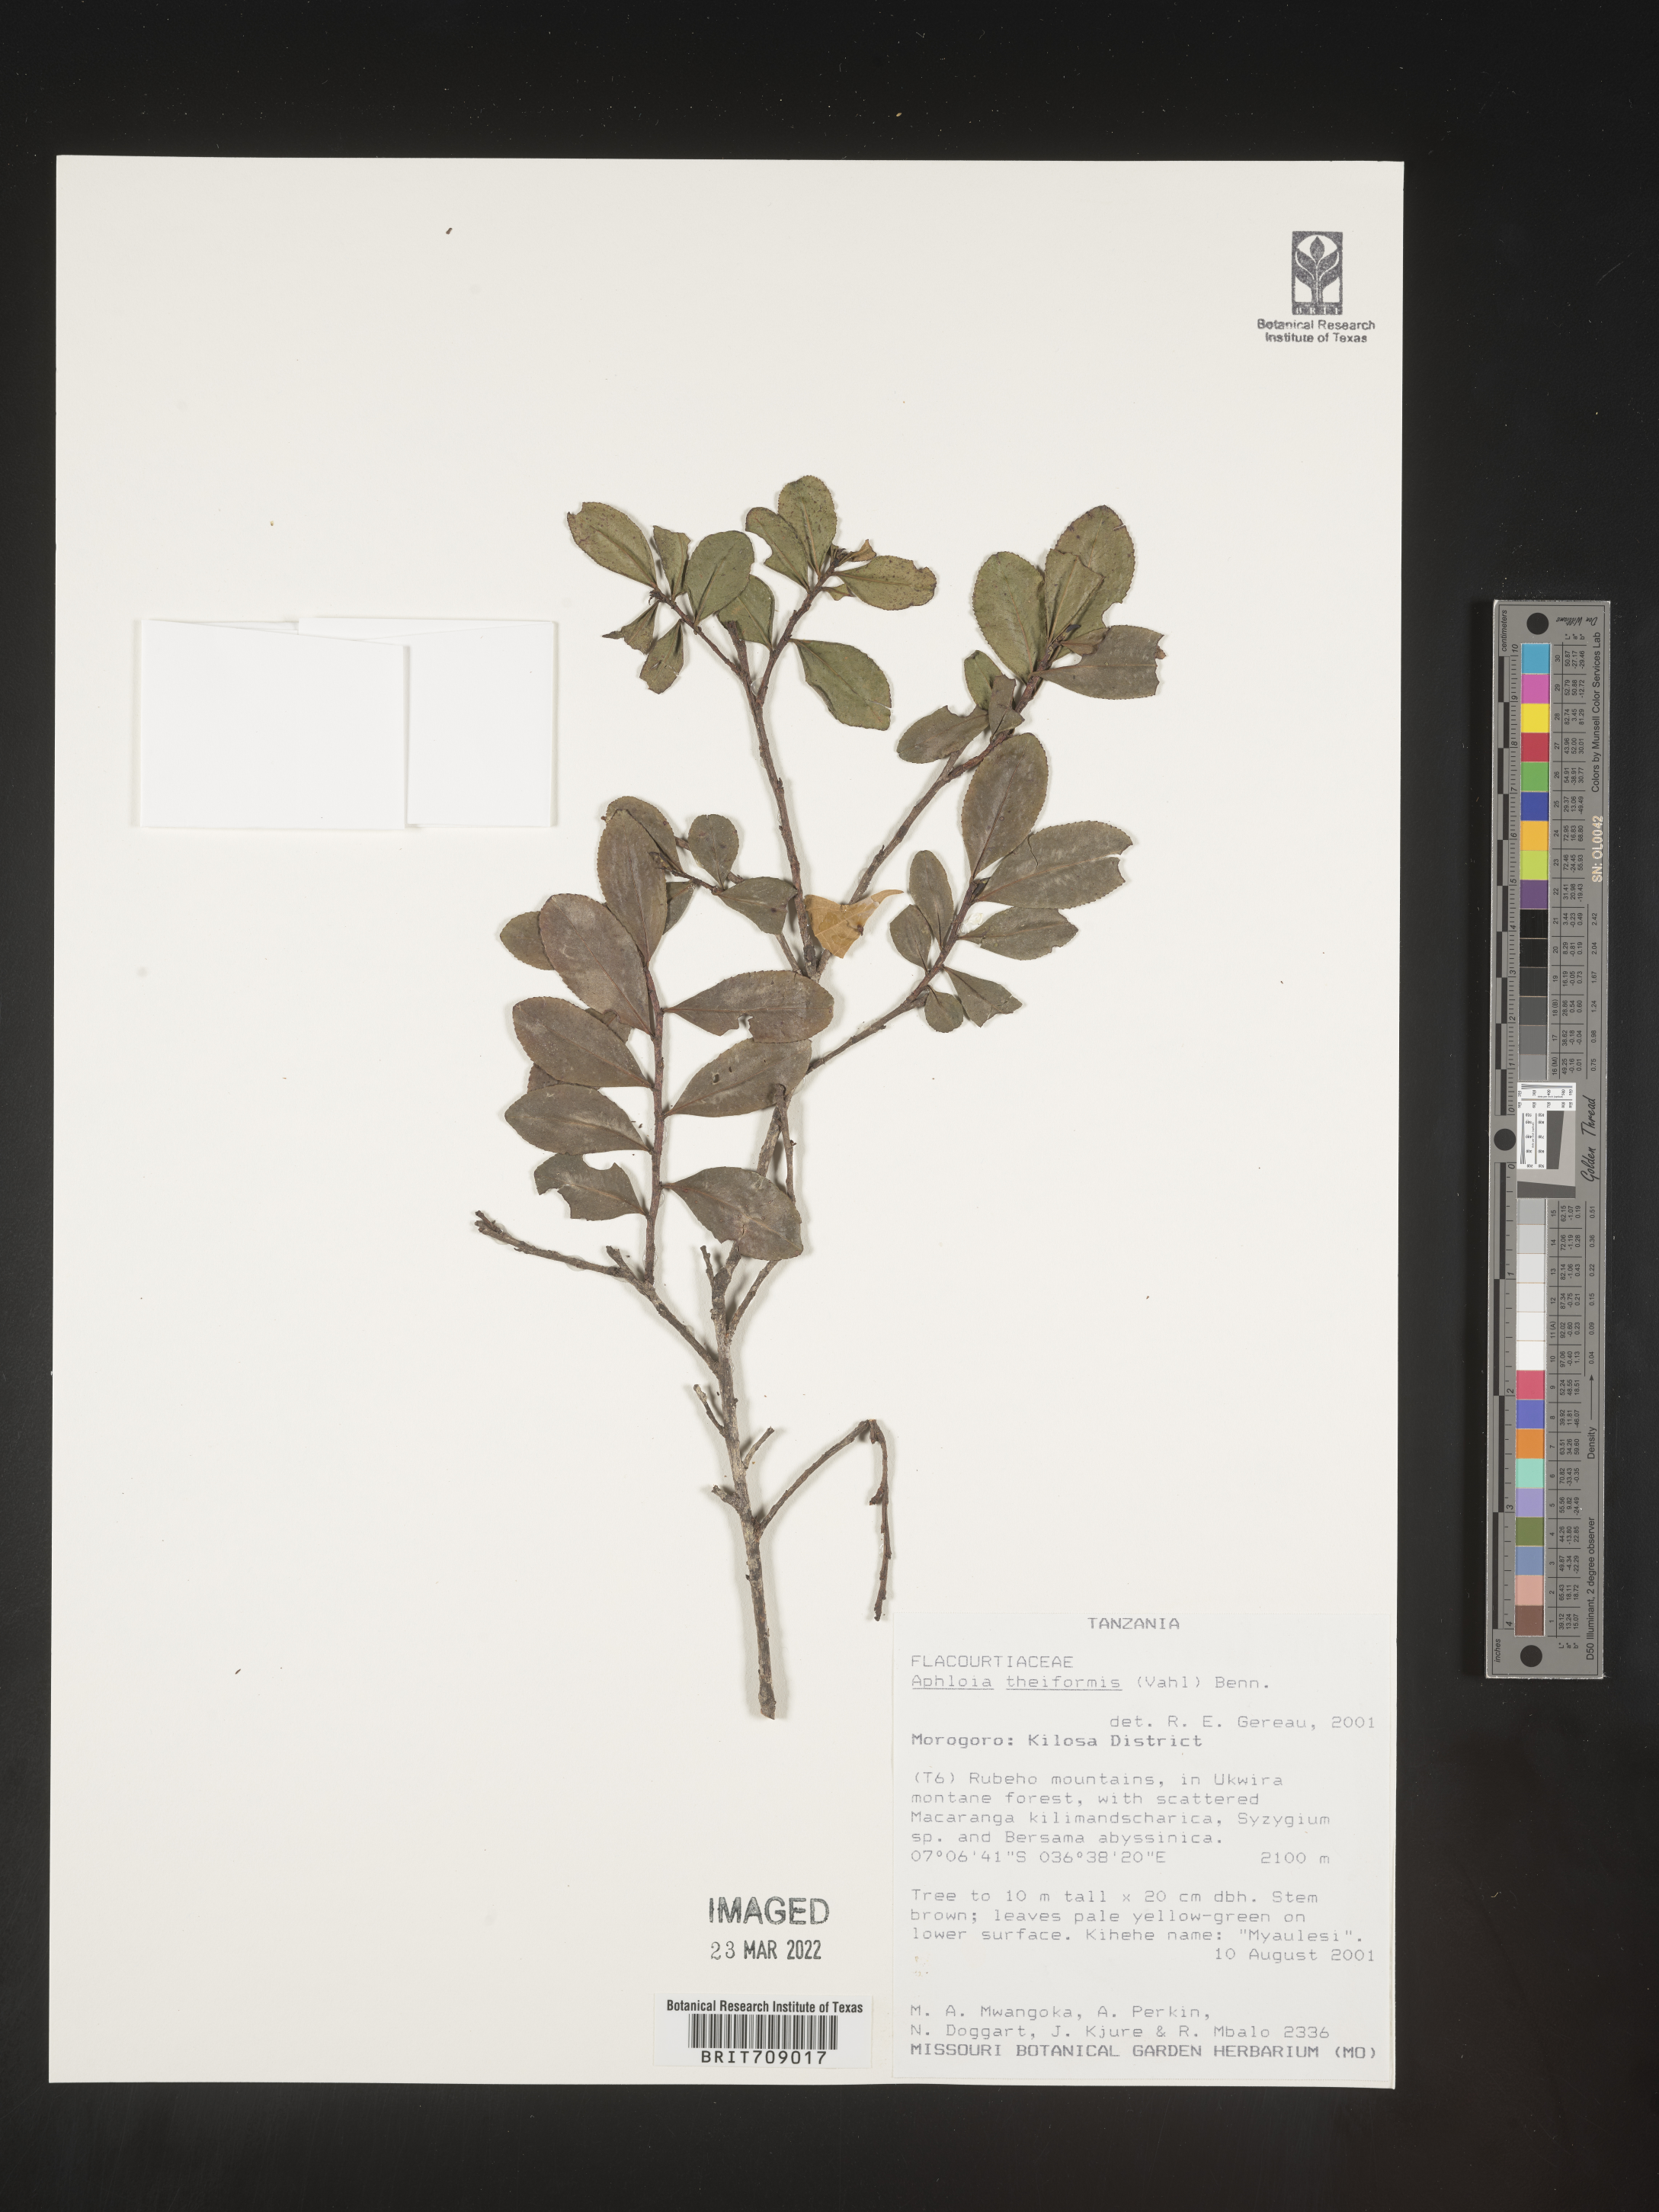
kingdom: Plantae
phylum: Tracheophyta
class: Magnoliopsida
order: Crossosomatales
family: Aphloiaceae
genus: Aphloia
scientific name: Aphloia
